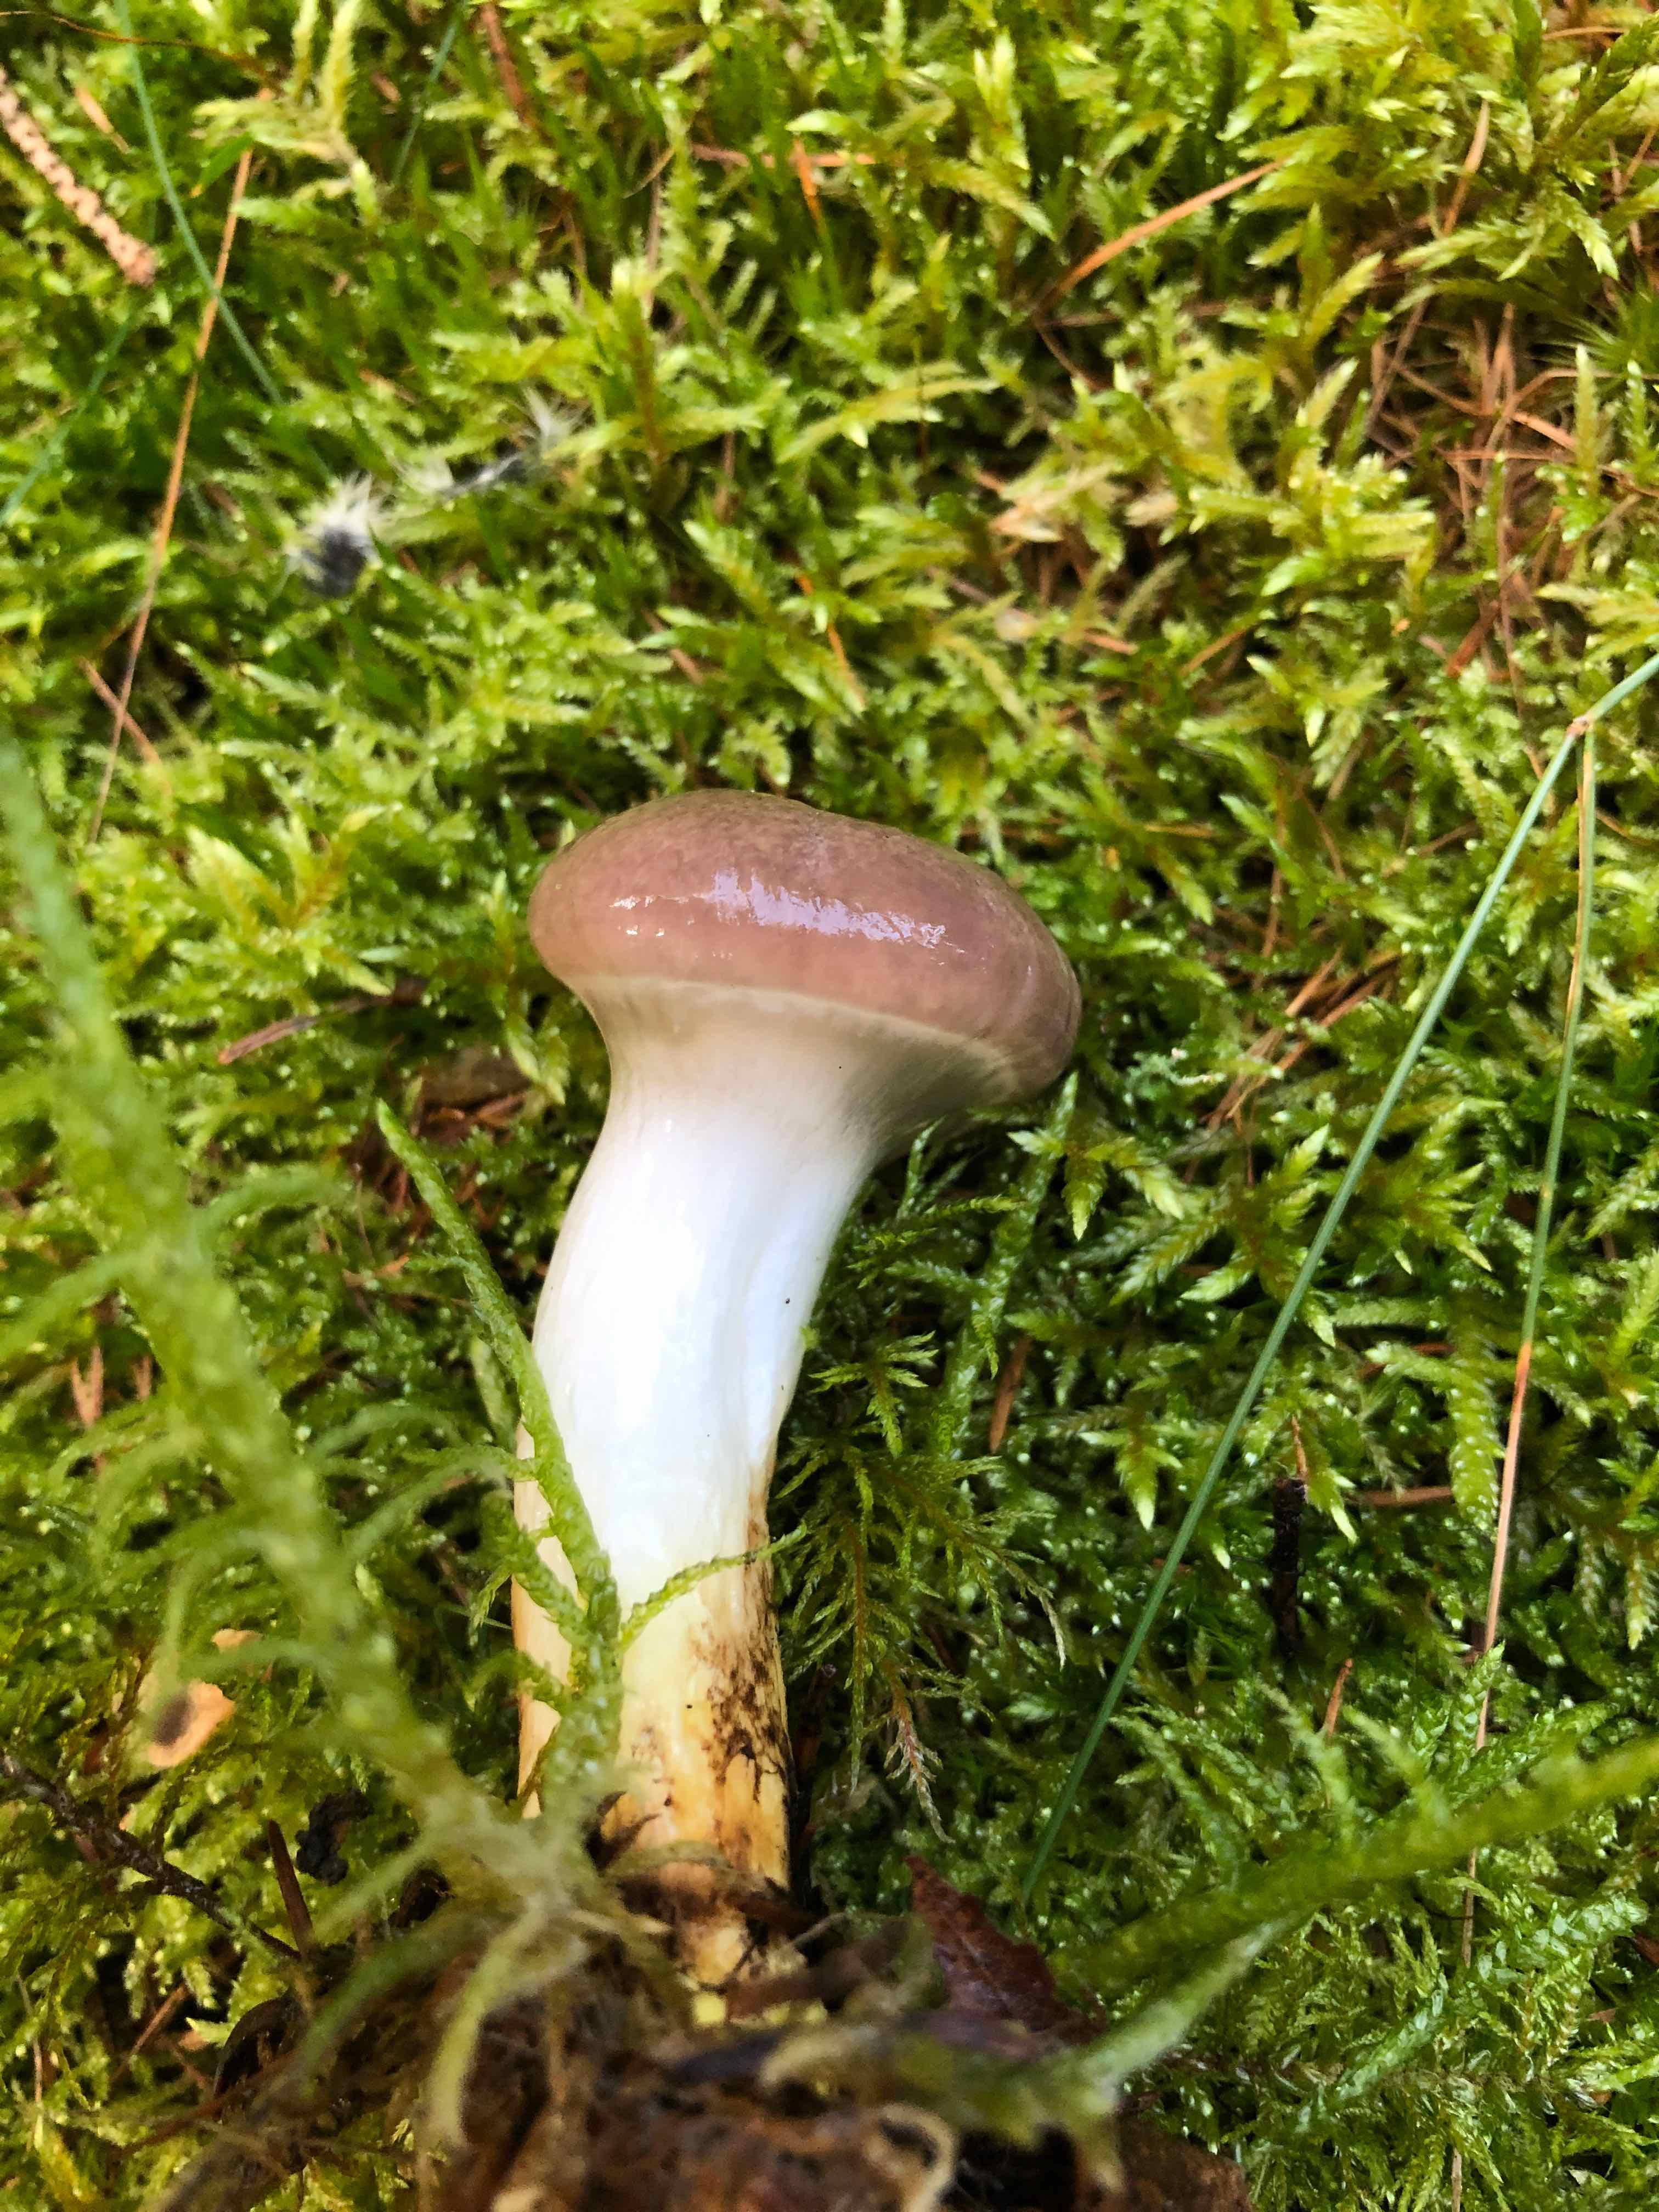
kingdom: Fungi
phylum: Basidiomycota
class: Agaricomycetes
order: Boletales
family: Gomphidiaceae
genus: Gomphidius
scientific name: Gomphidius glutinosus
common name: grå slimslør
